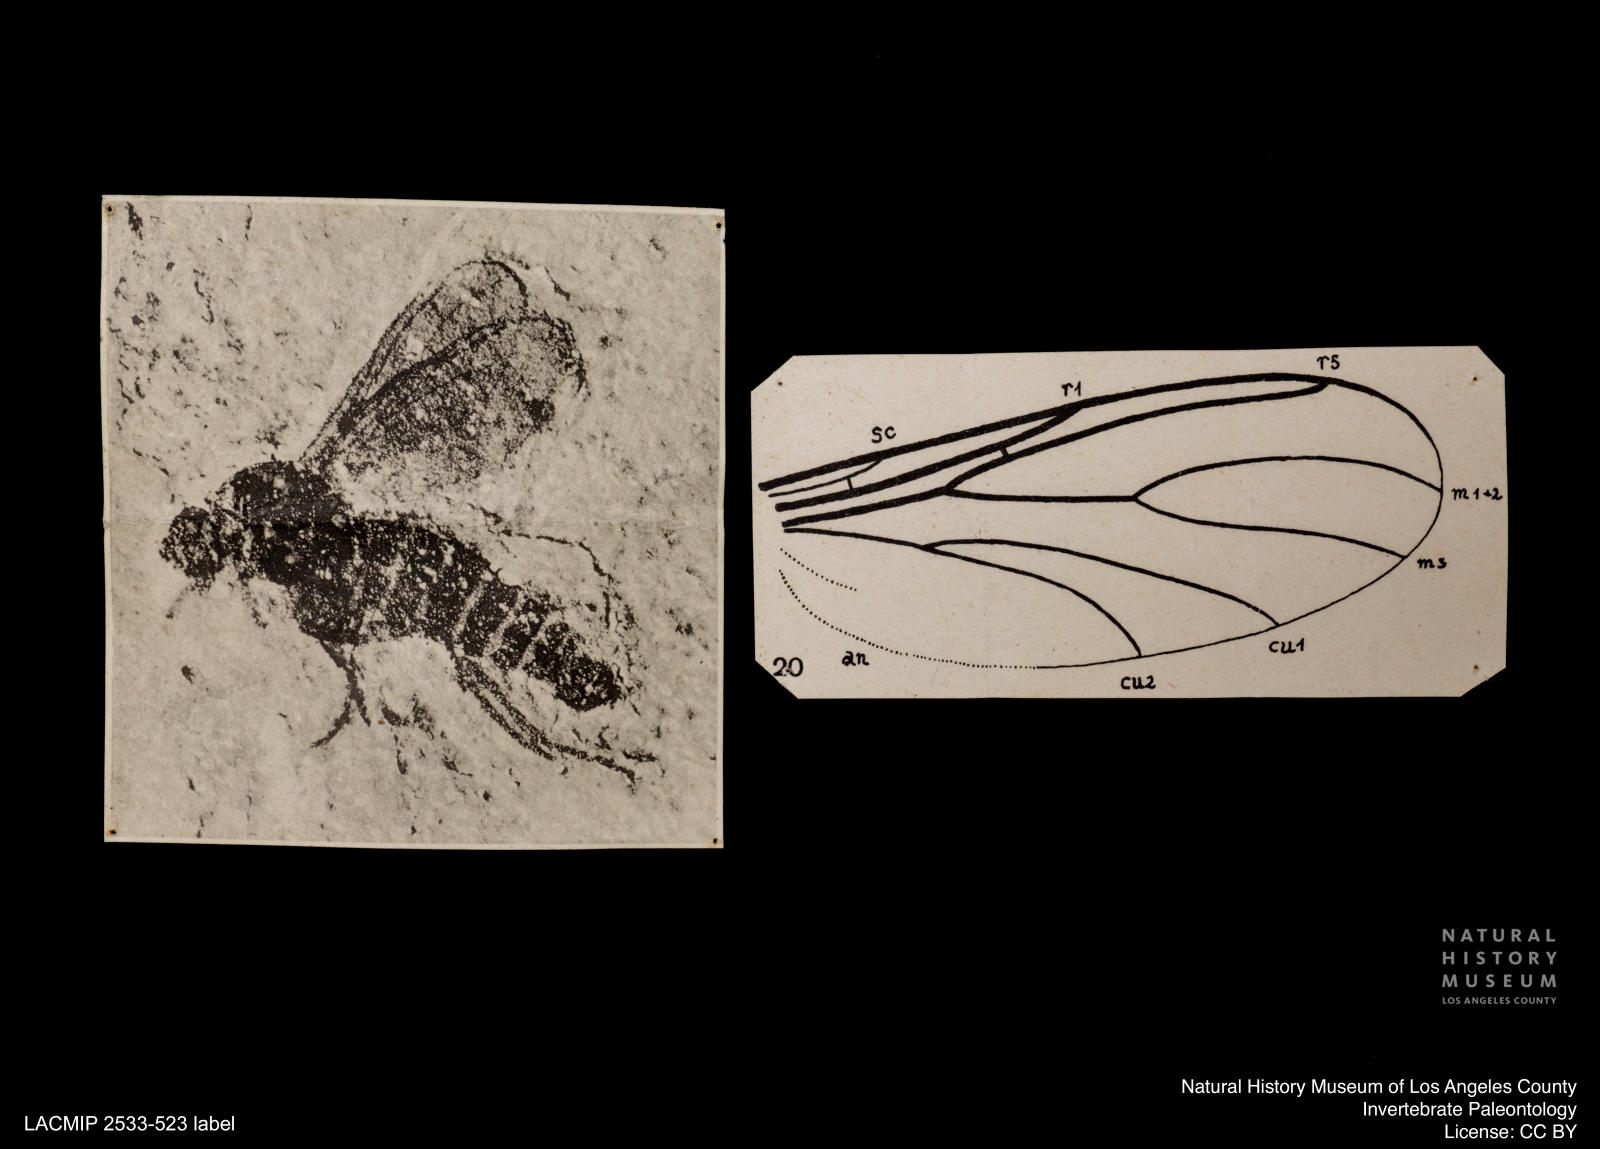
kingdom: Animalia
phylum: Arthropoda
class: Insecta
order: Diptera
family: Mycetophilidae
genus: Leia
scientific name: Leia aberrans
